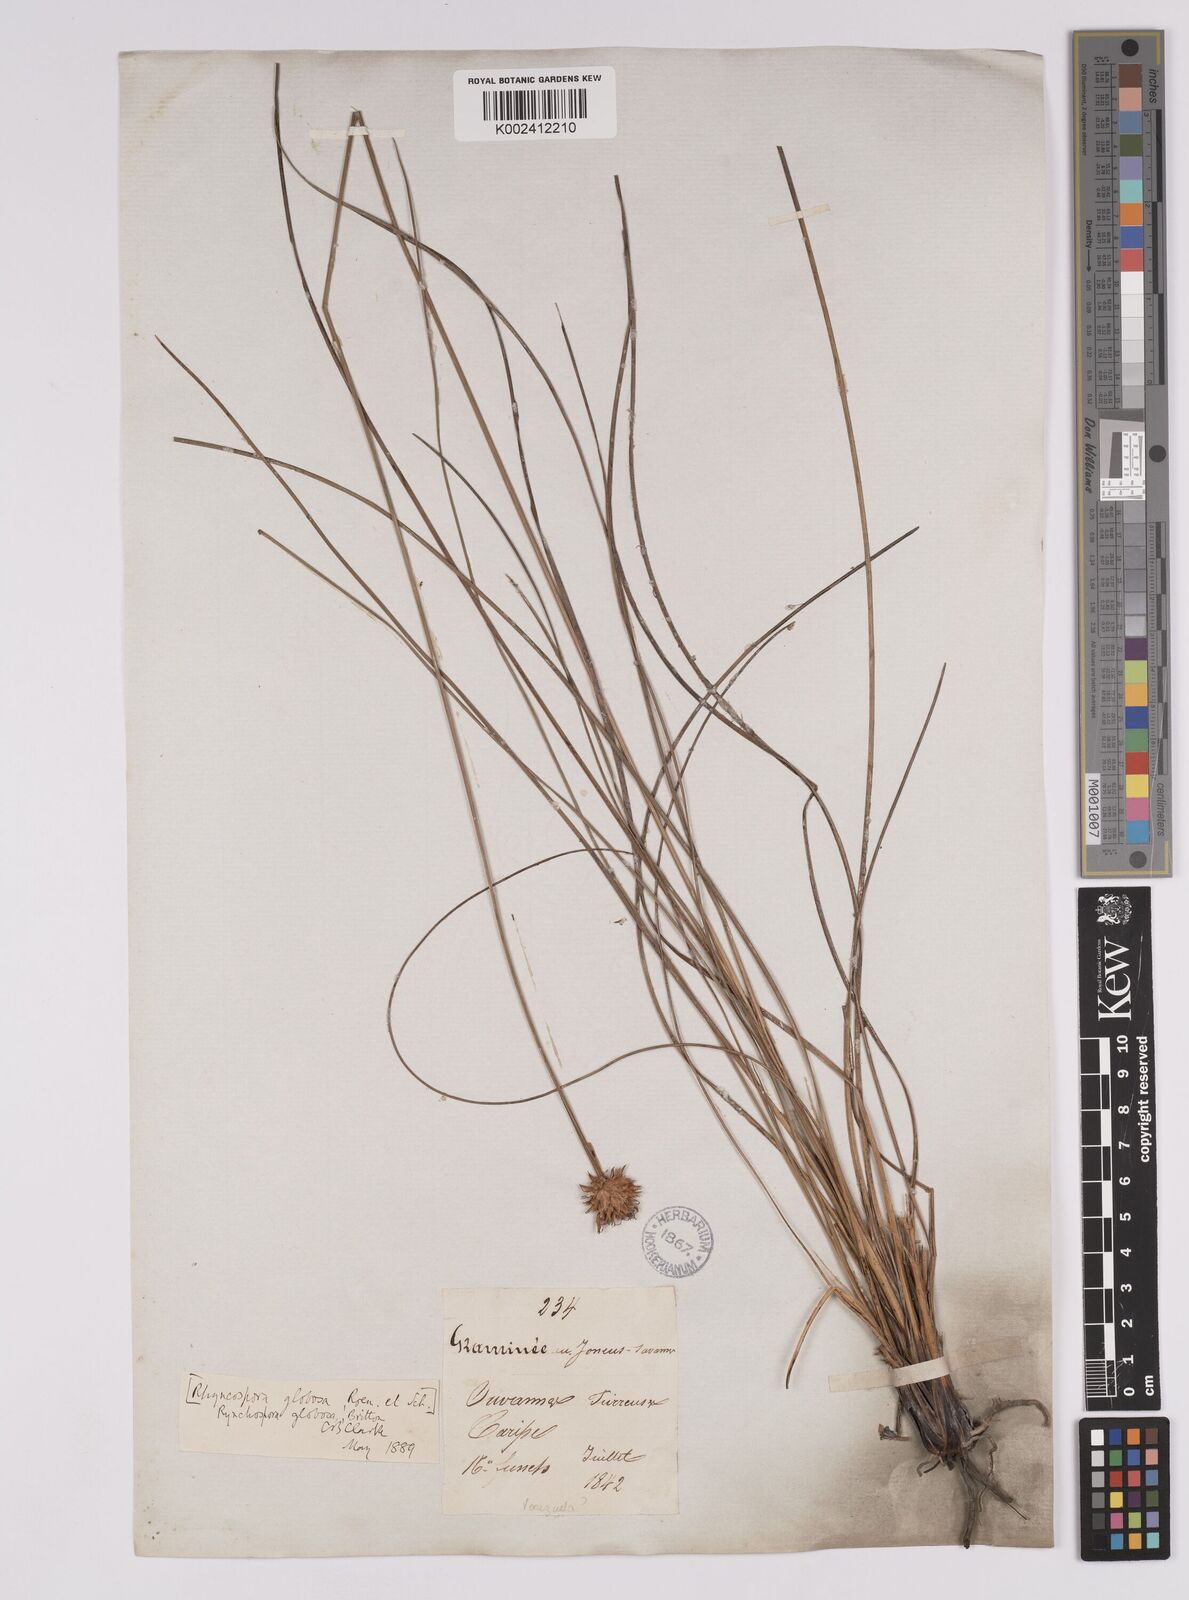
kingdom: Plantae
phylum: Tracheophyta
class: Liliopsida
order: Poales
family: Cyperaceae
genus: Rhynchospora
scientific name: Rhynchospora globosa
